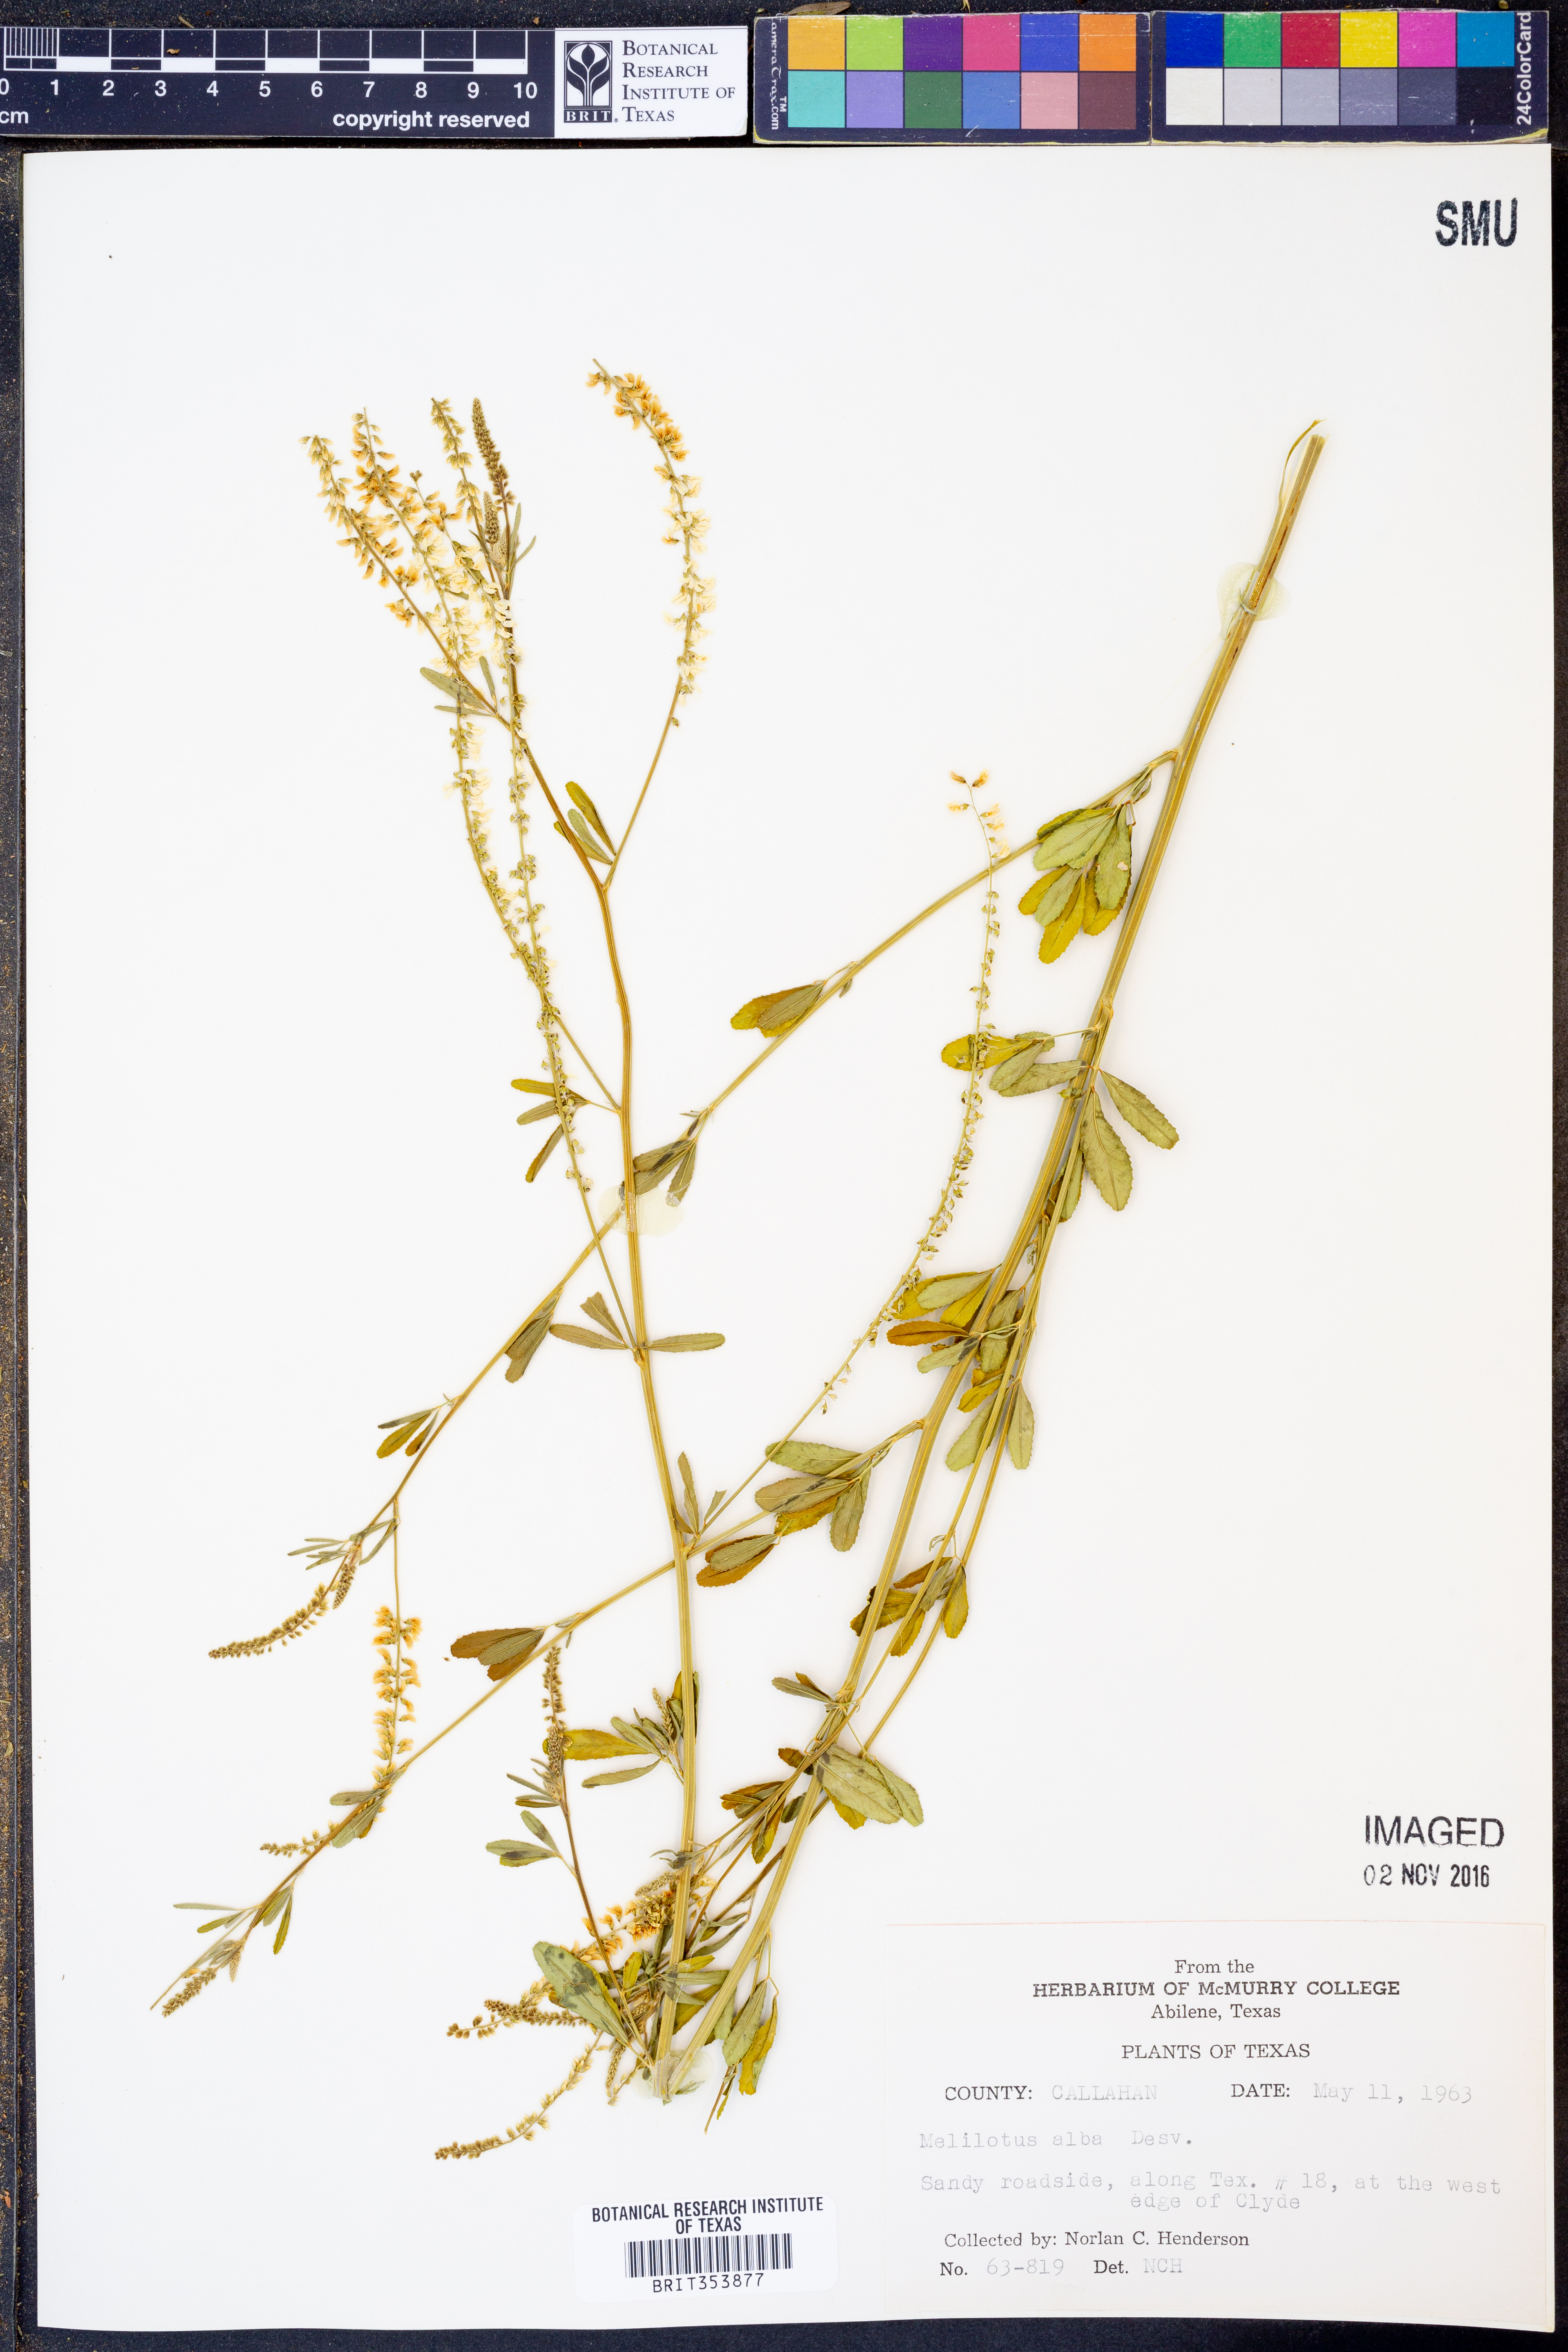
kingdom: Plantae
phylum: Tracheophyta
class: Magnoliopsida
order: Fabales
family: Fabaceae
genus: Melilotus
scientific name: Melilotus albus
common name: White melilot
